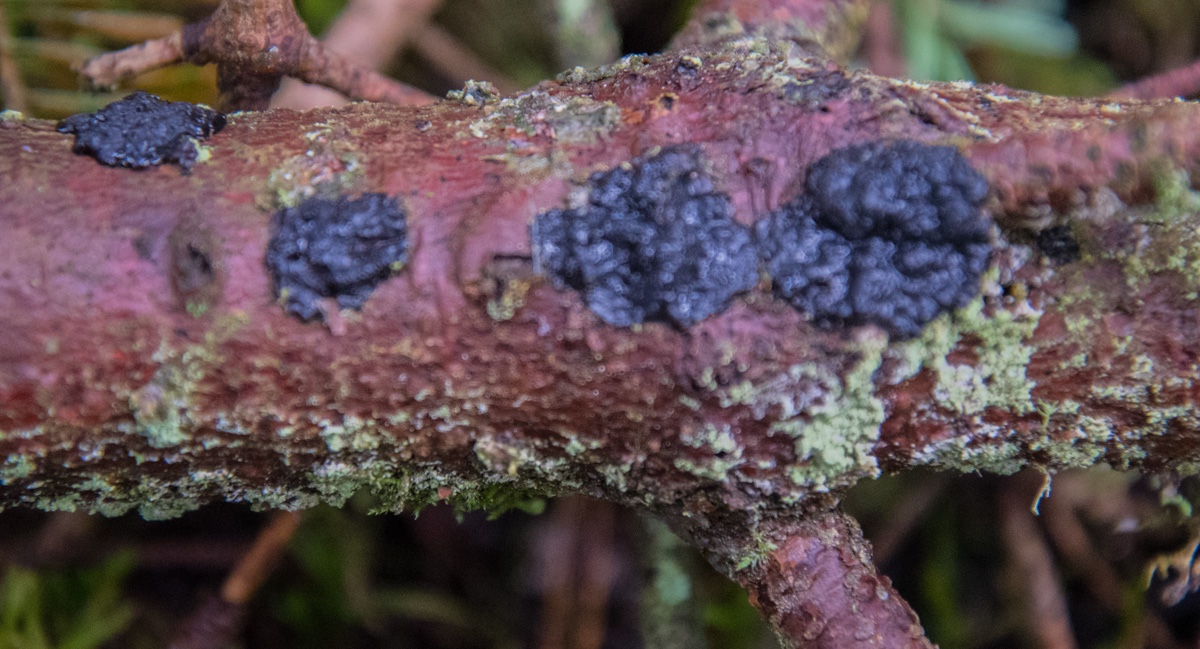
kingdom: Fungi
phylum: Basidiomycota
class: Agaricomycetes
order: Auriculariales
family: Auriculariaceae
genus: Exidia
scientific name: Exidia pithya
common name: gran-bævretop
